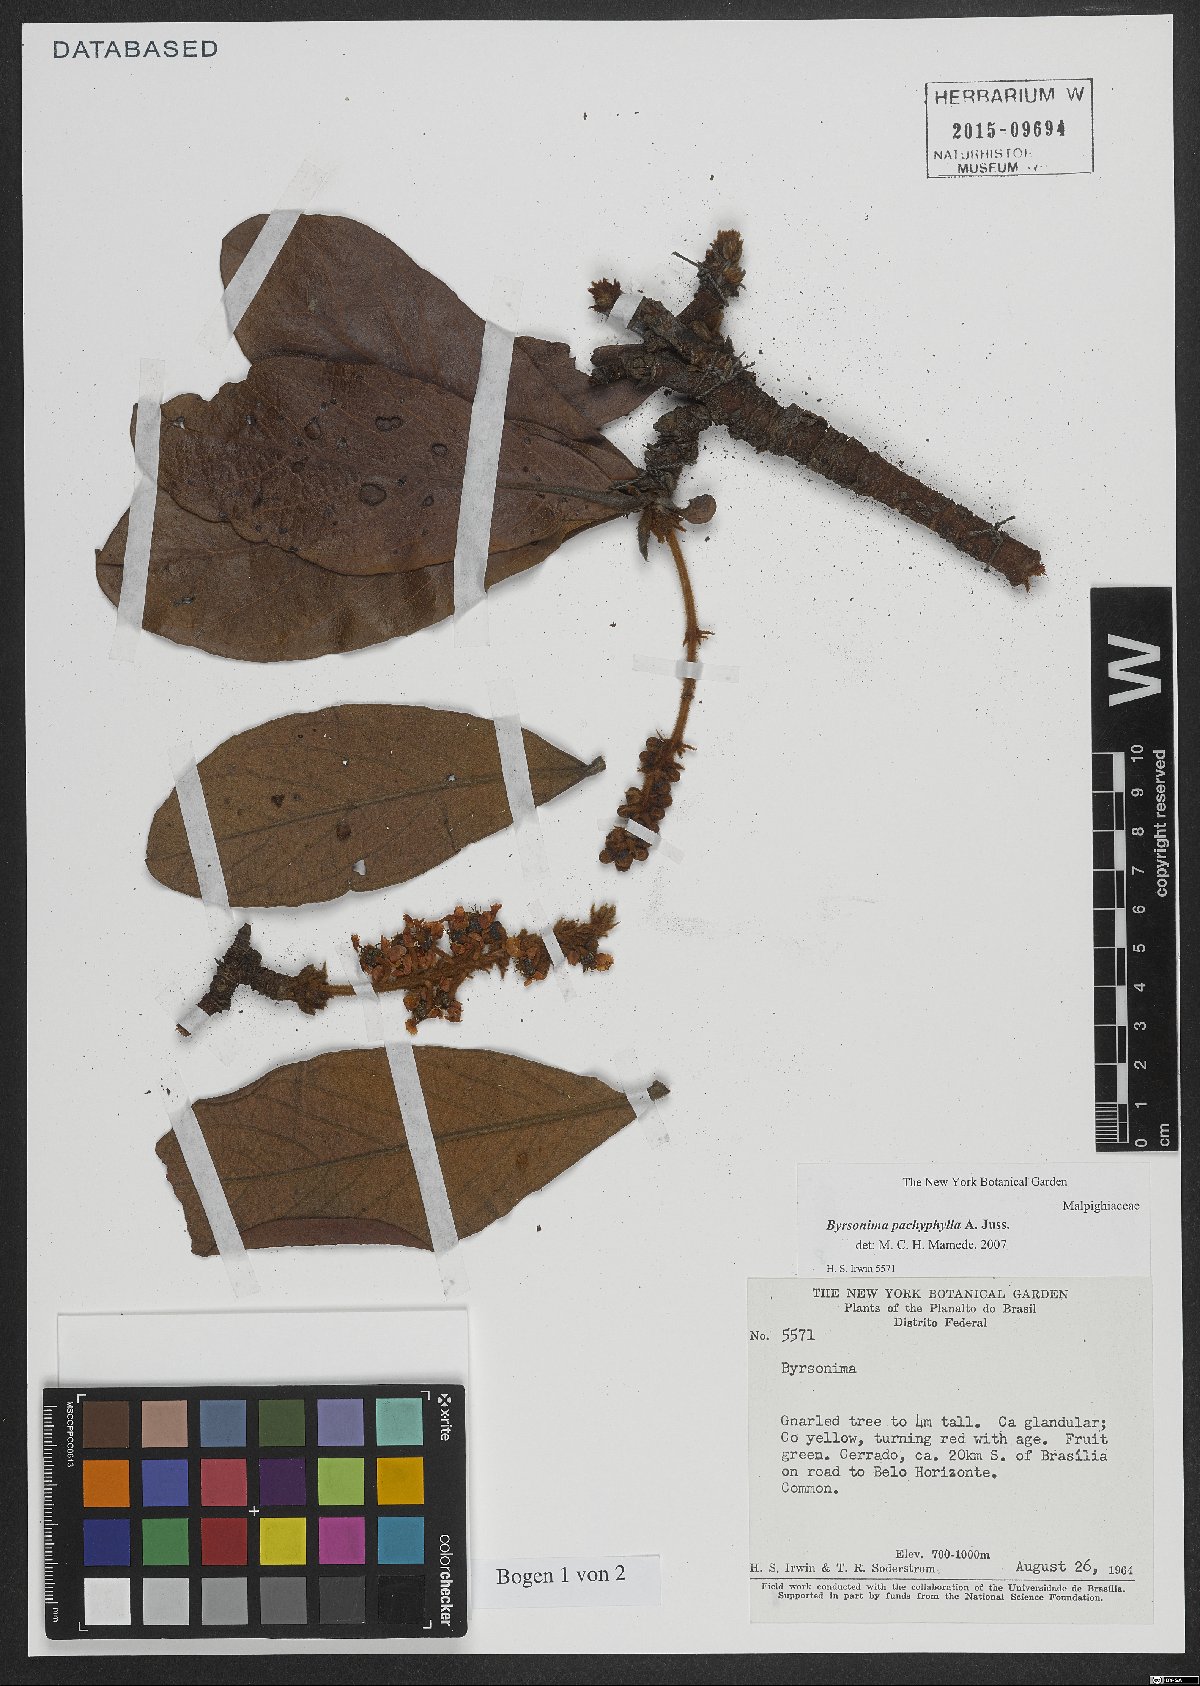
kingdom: Plantae
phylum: Tracheophyta
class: Magnoliopsida
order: Malpighiales
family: Malpighiaceae
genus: Byrsonima
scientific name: Byrsonima pachyphylla
